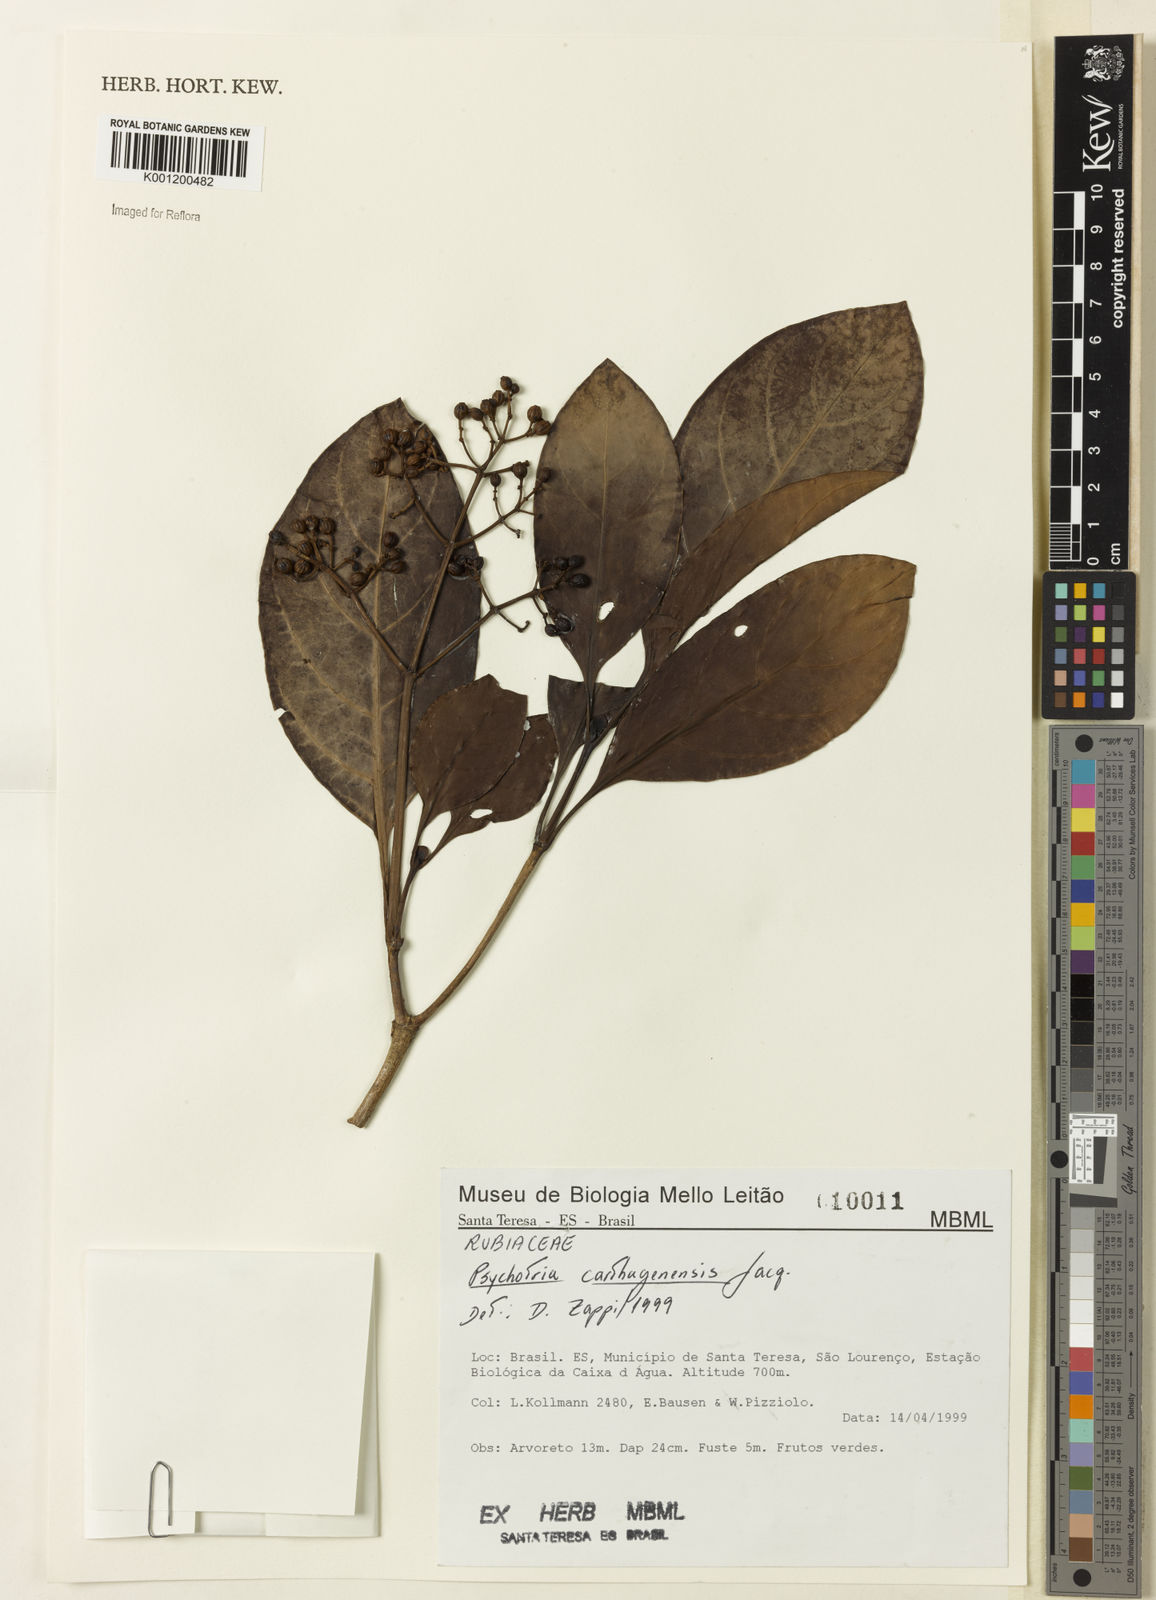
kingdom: Plantae
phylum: Tracheophyta
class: Magnoliopsida
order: Gentianales
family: Rubiaceae
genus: Psychotria
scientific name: Psychotria carthagenensis
